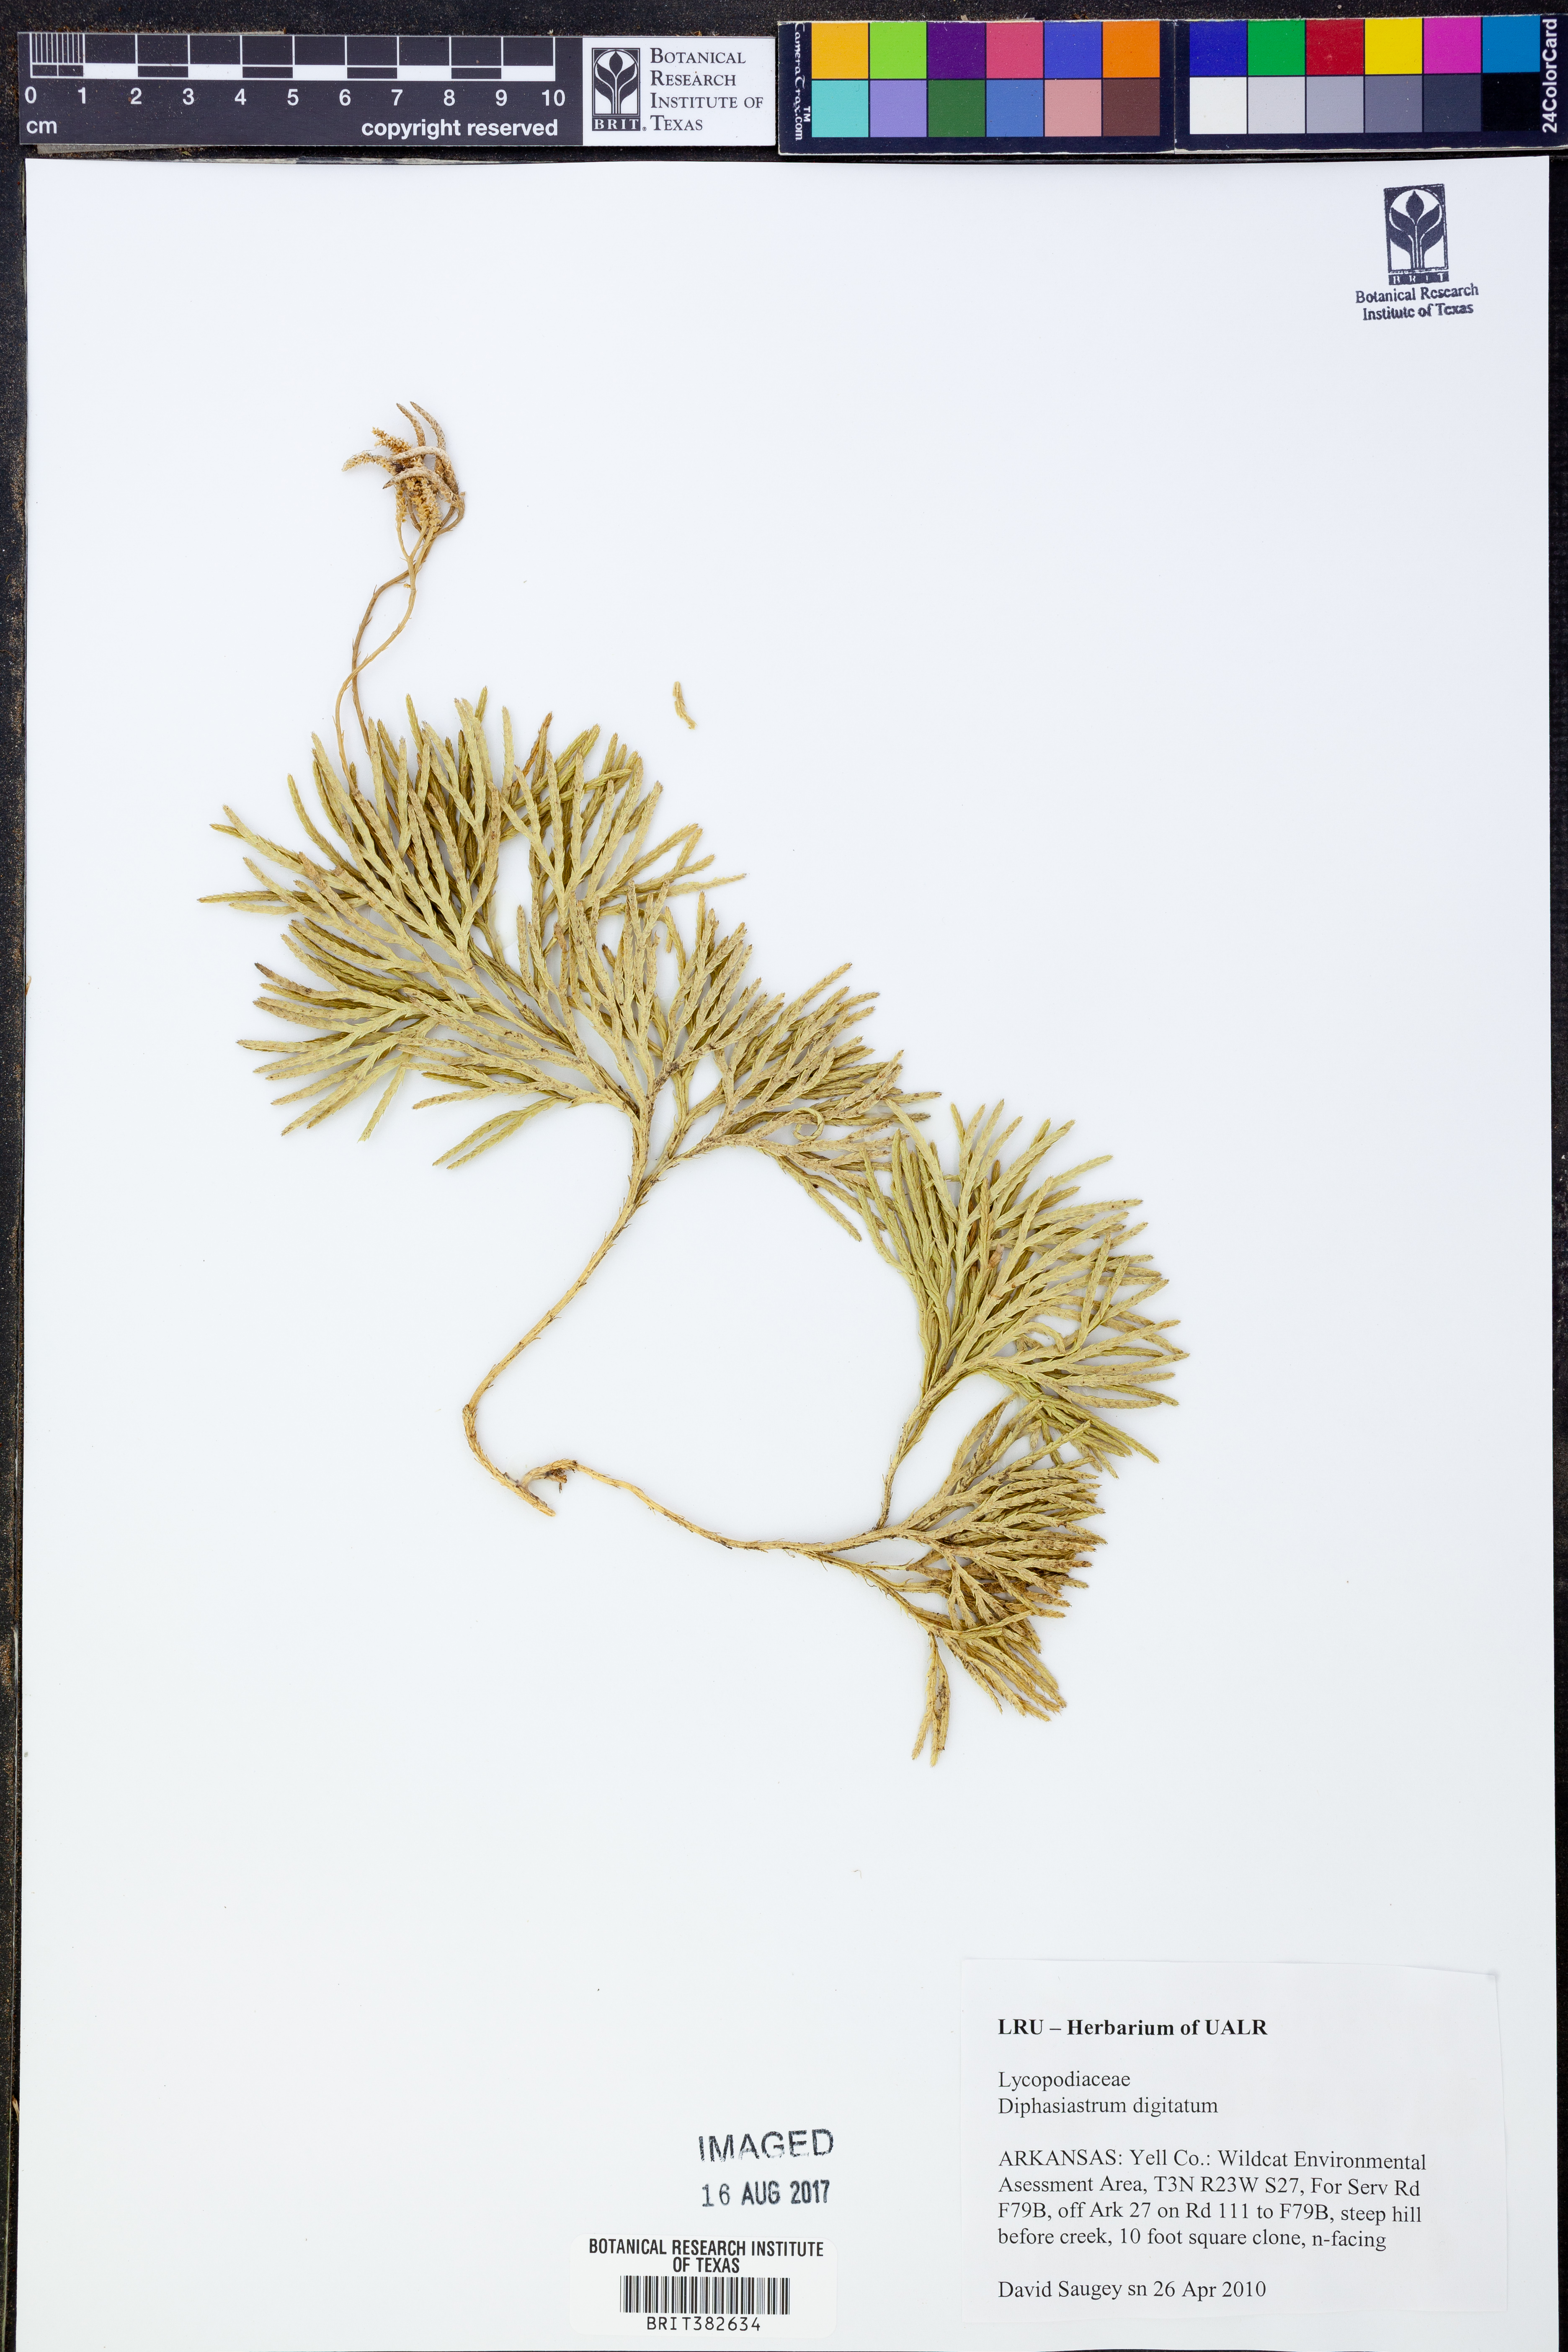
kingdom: Plantae
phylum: Tracheophyta
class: Lycopodiopsida
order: Lycopodiales
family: Lycopodiaceae
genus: Diphasiastrum
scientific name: Diphasiastrum digitatum
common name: Southern running-pine
